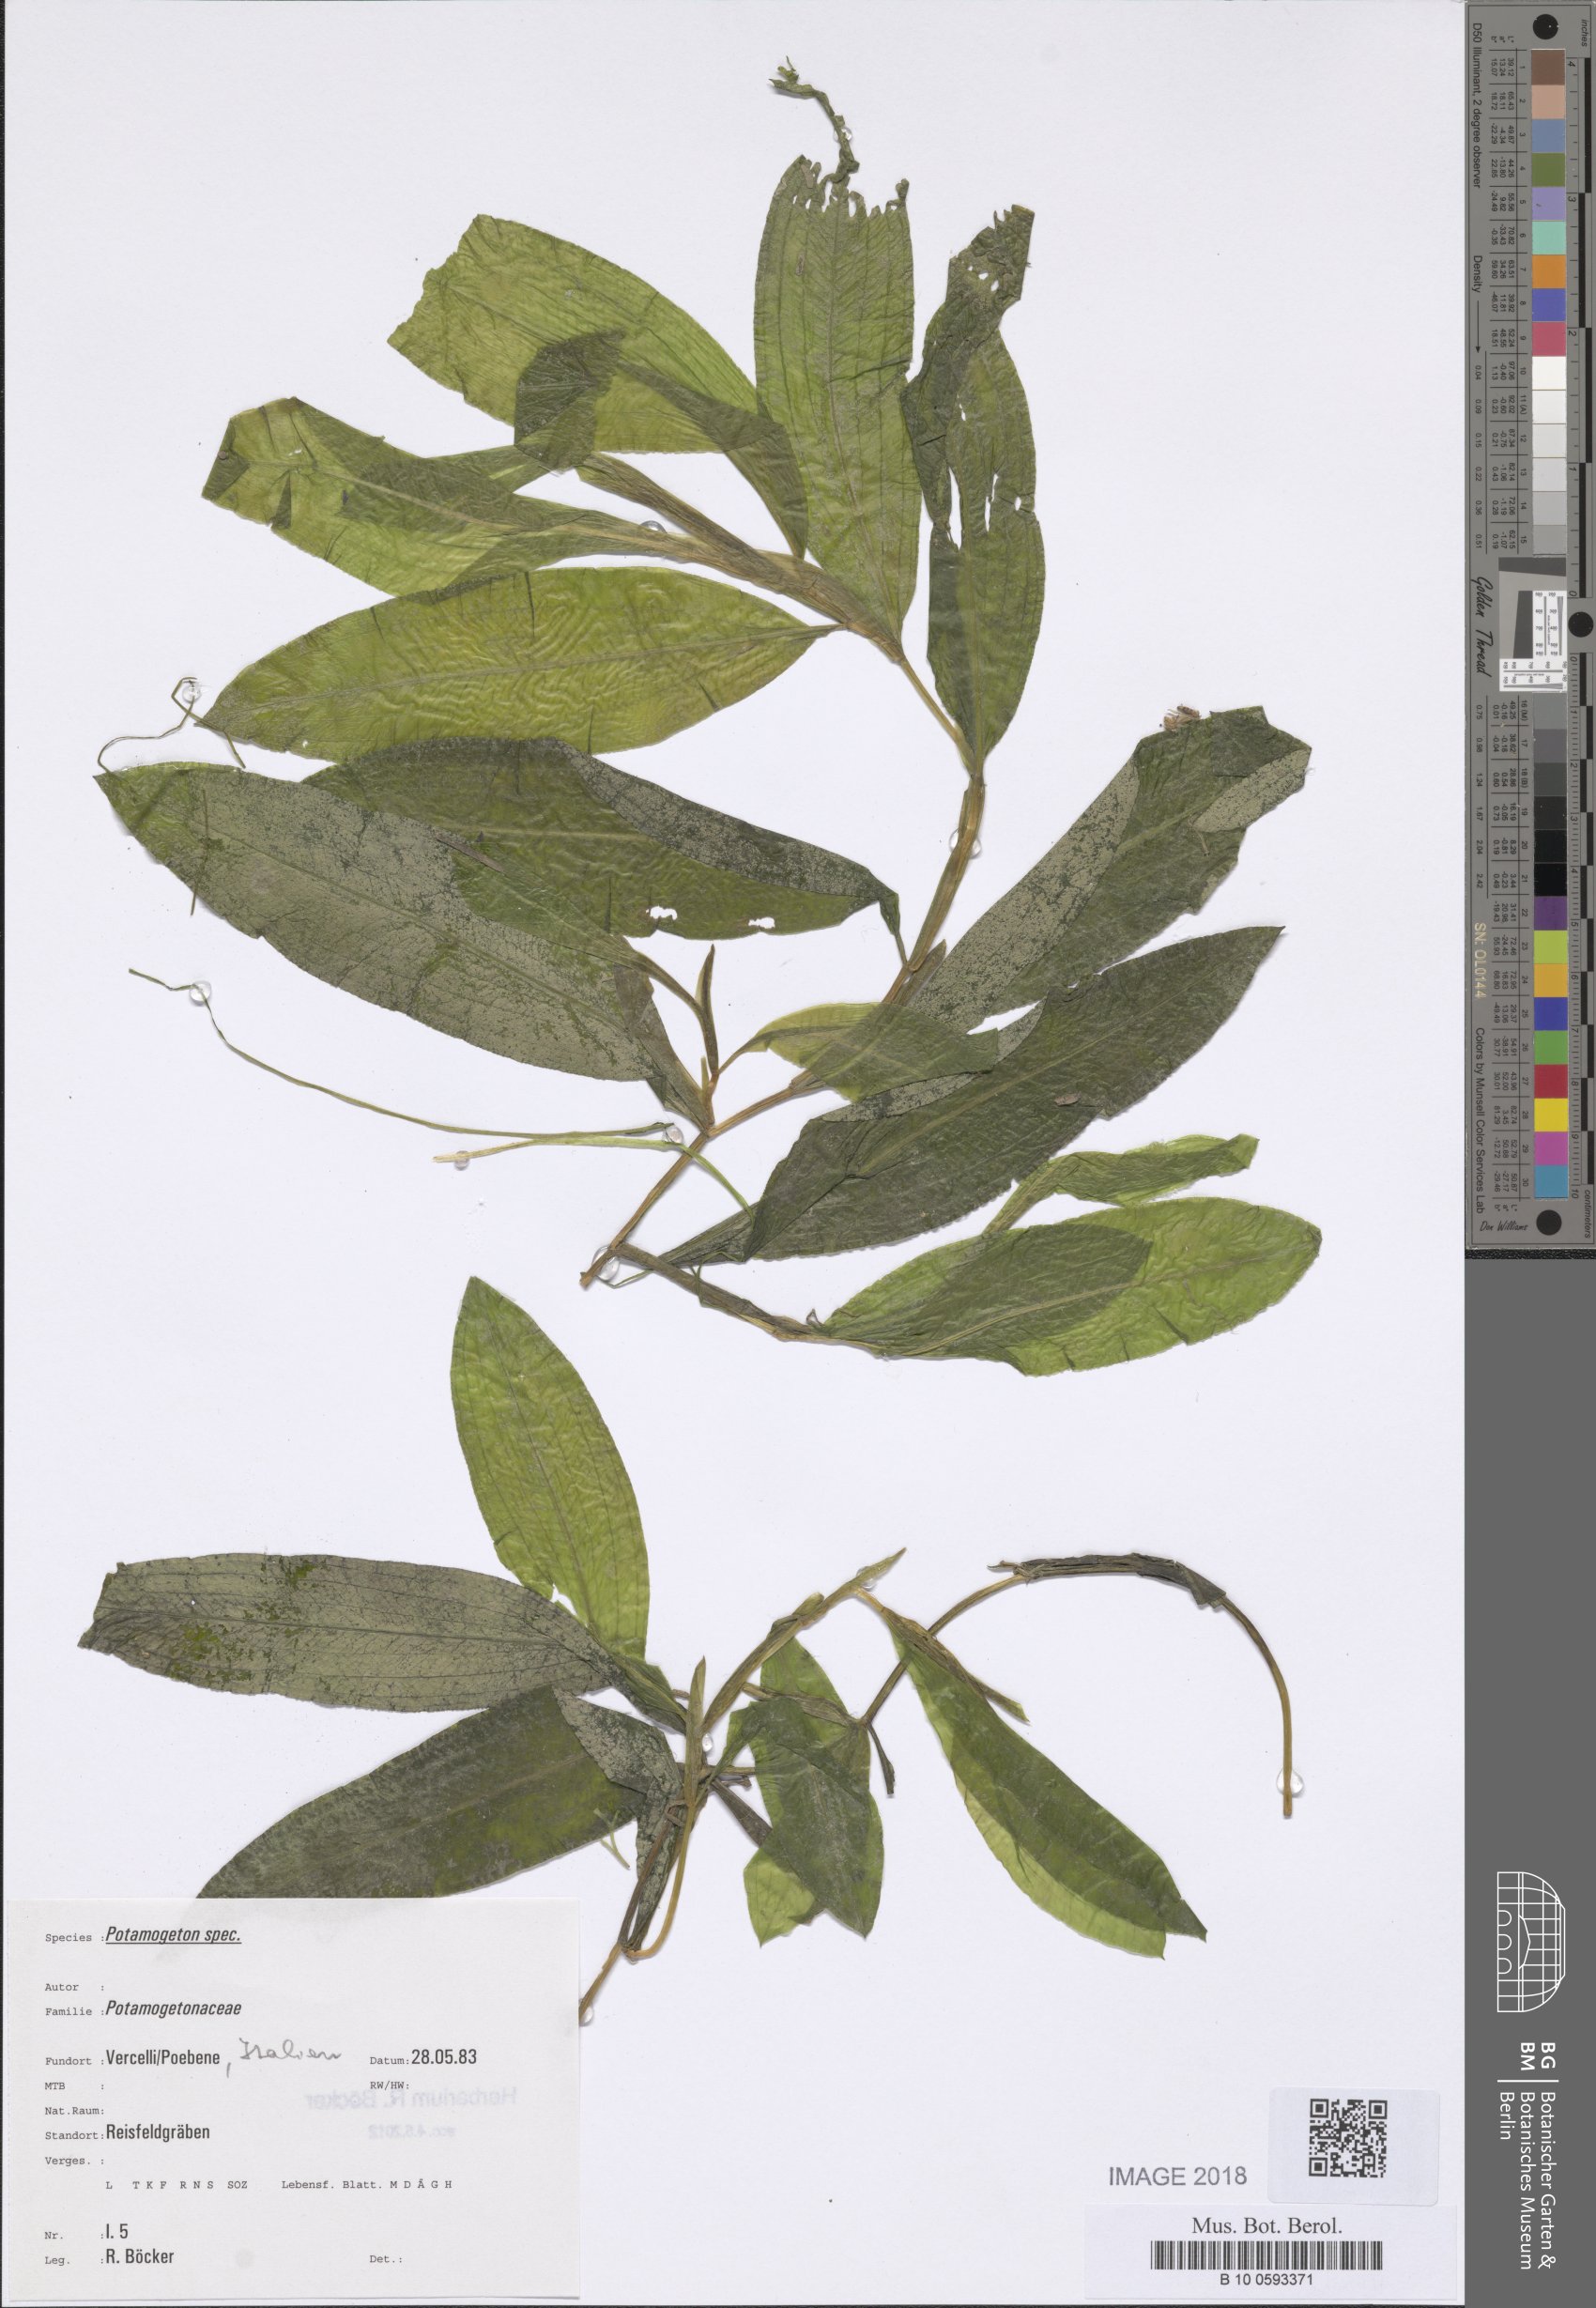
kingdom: Plantae
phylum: Tracheophyta
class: Liliopsida
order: Alismatales
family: Potamogetonaceae
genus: Potamogeton
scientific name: Potamogeton lucens
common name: Shining pondweed
